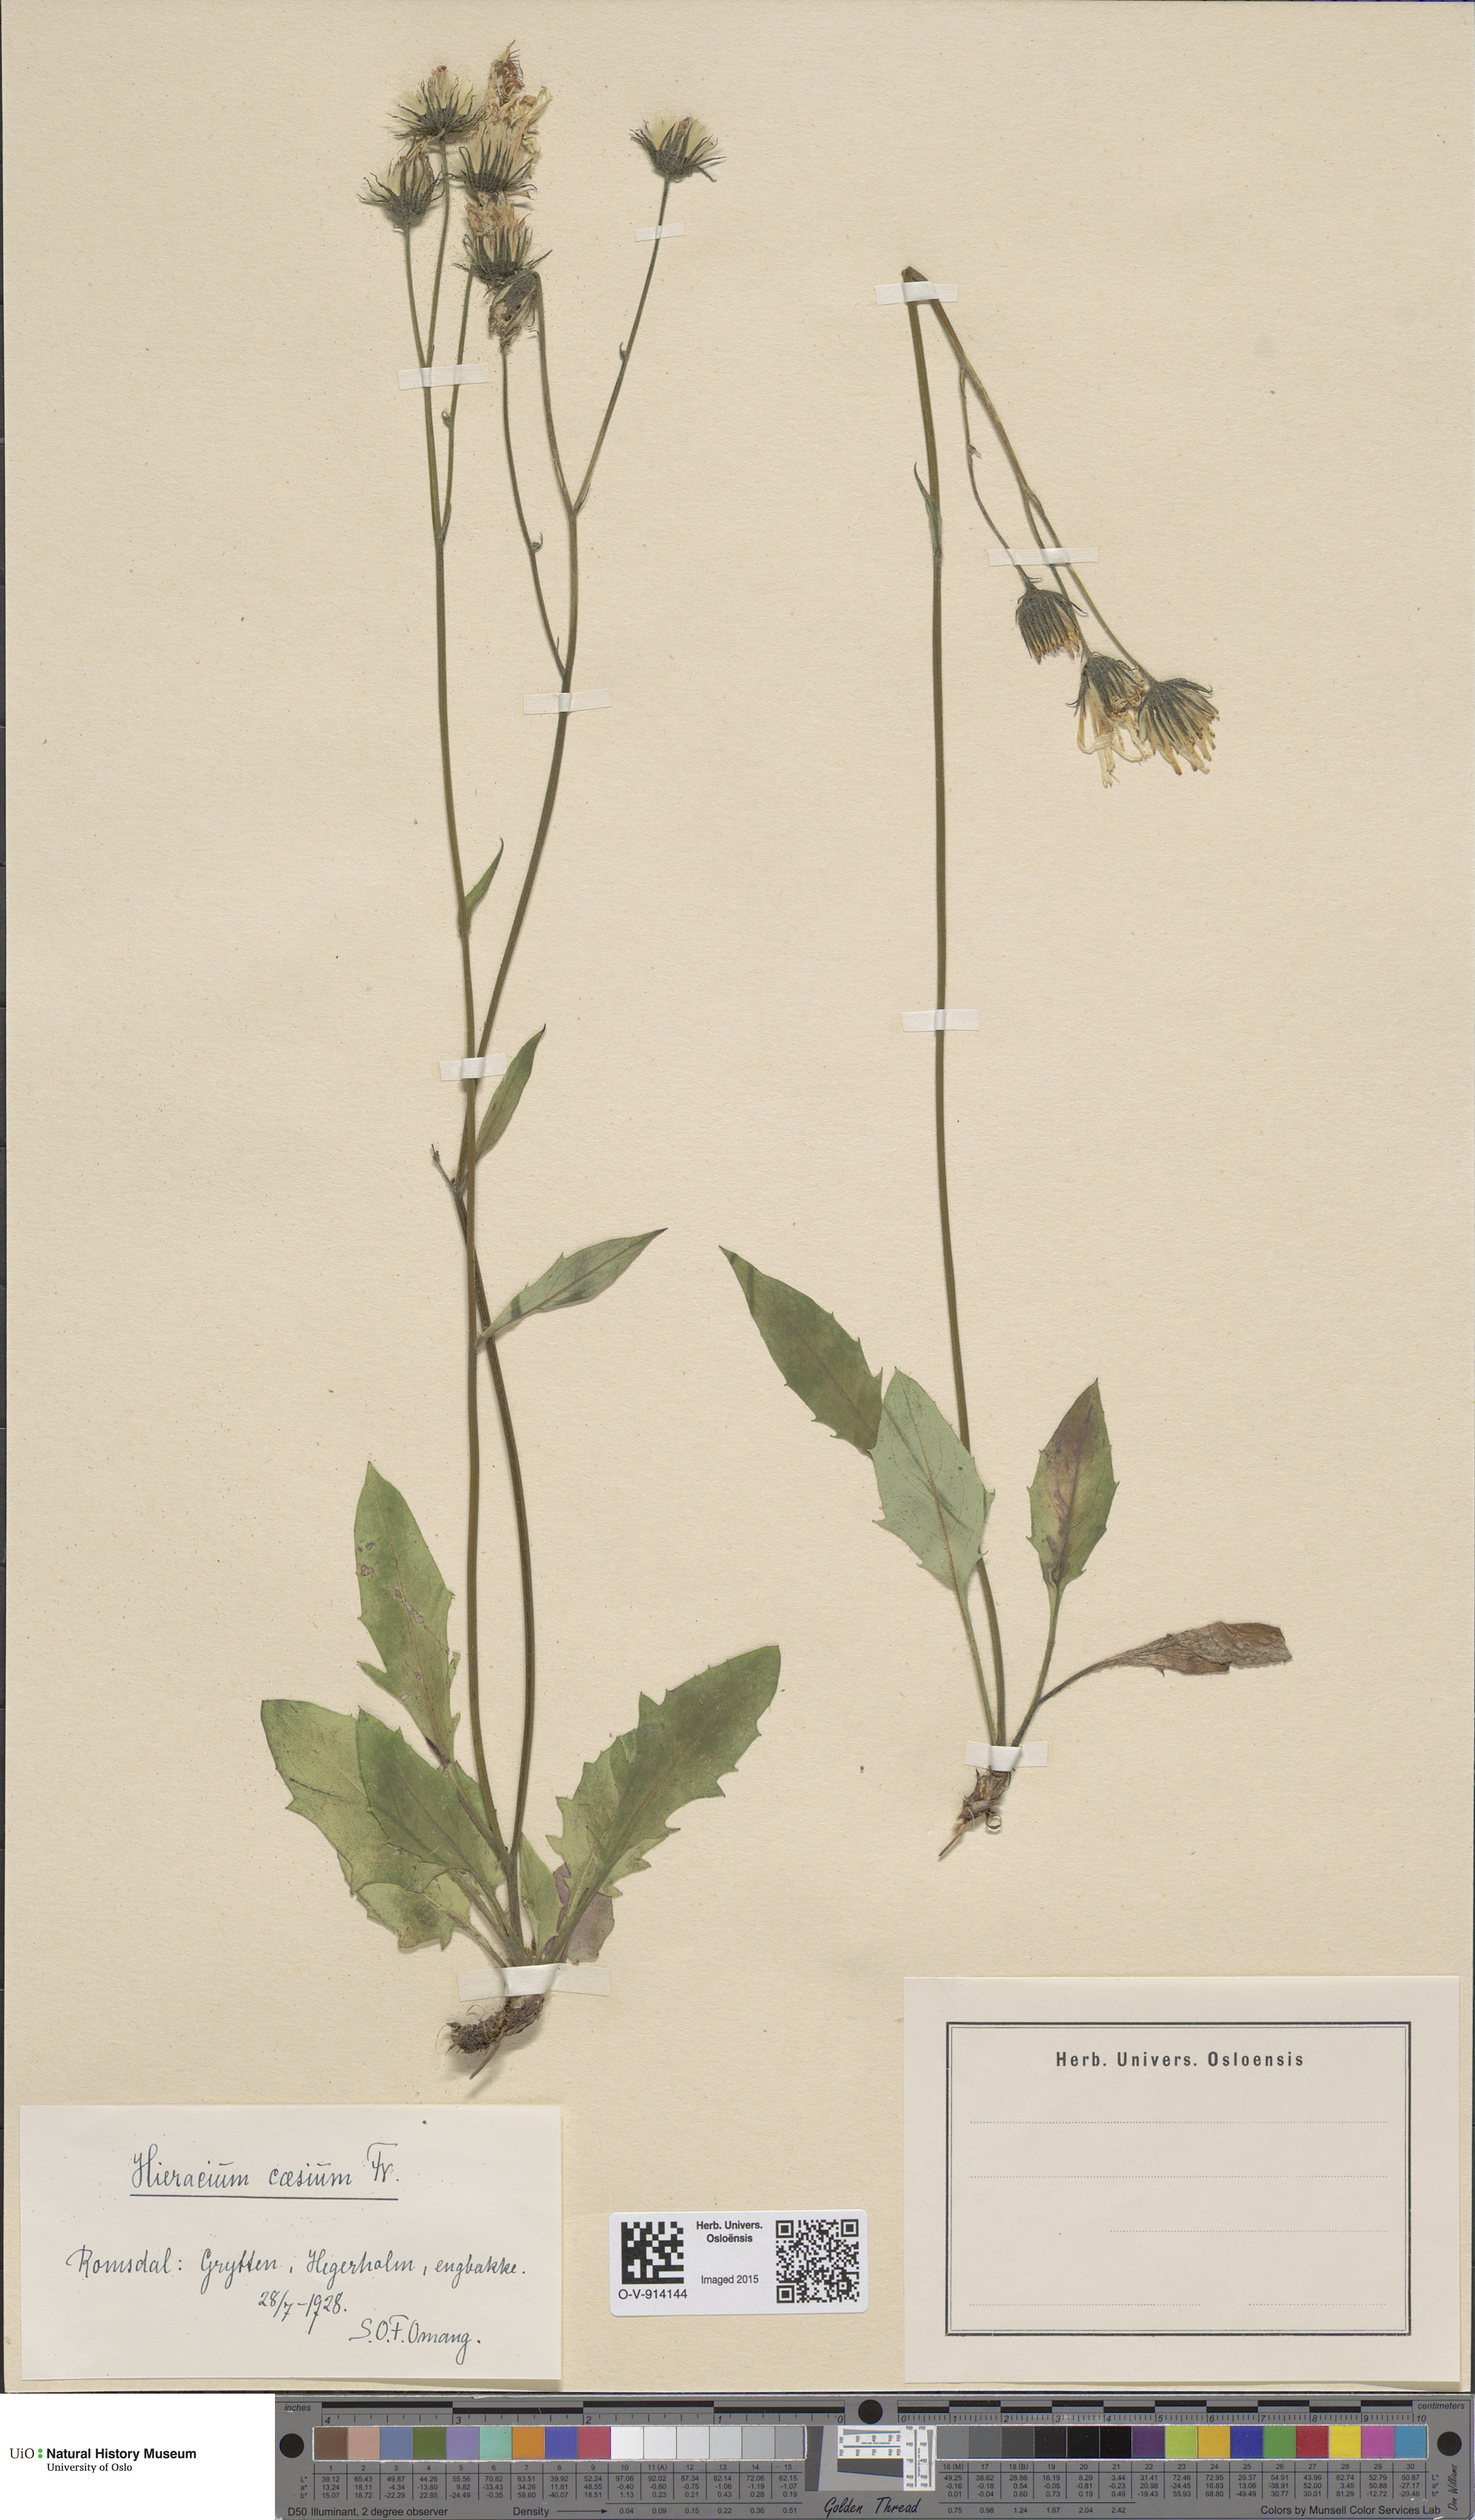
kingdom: Plantae
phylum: Tracheophyta
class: Magnoliopsida
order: Asterales
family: Asteraceae
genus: Hieracium
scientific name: Hieracium caesium
